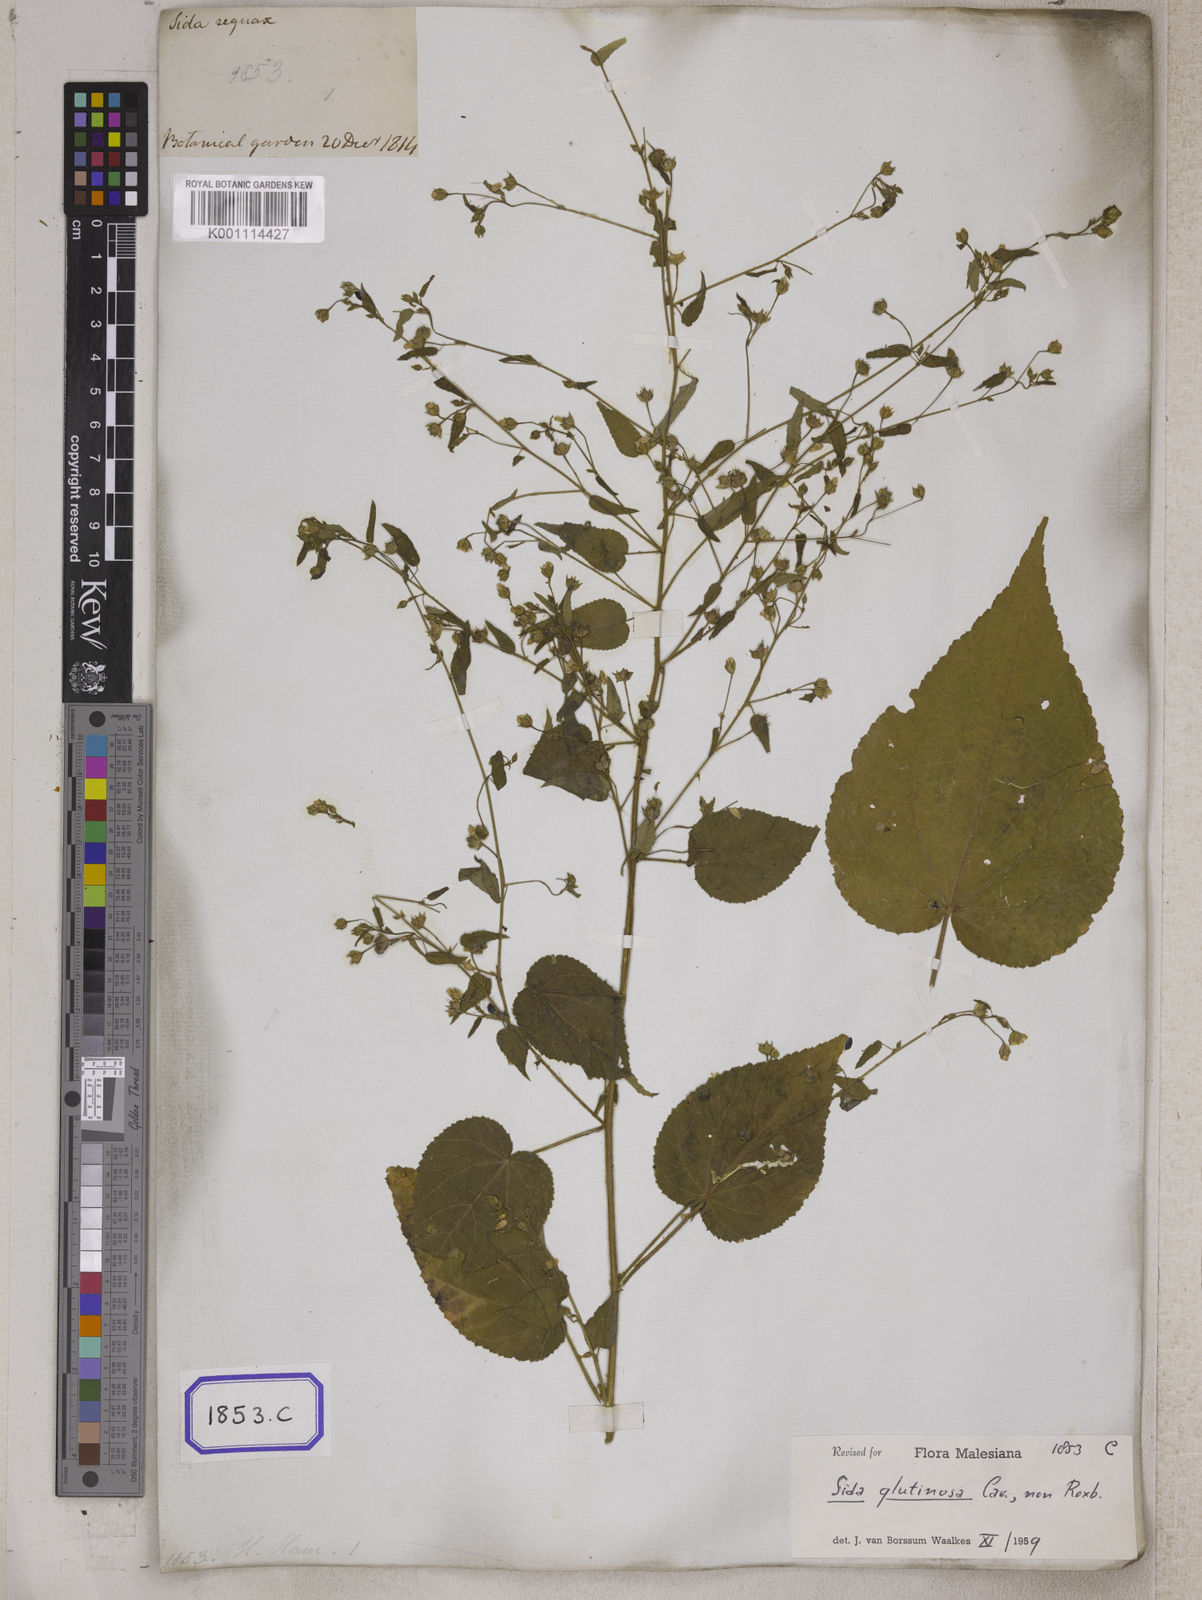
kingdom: Plantae
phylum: Tracheophyta
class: Magnoliopsida
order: Malvales
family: Malvaceae
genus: Sida
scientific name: Sida glutinosa
